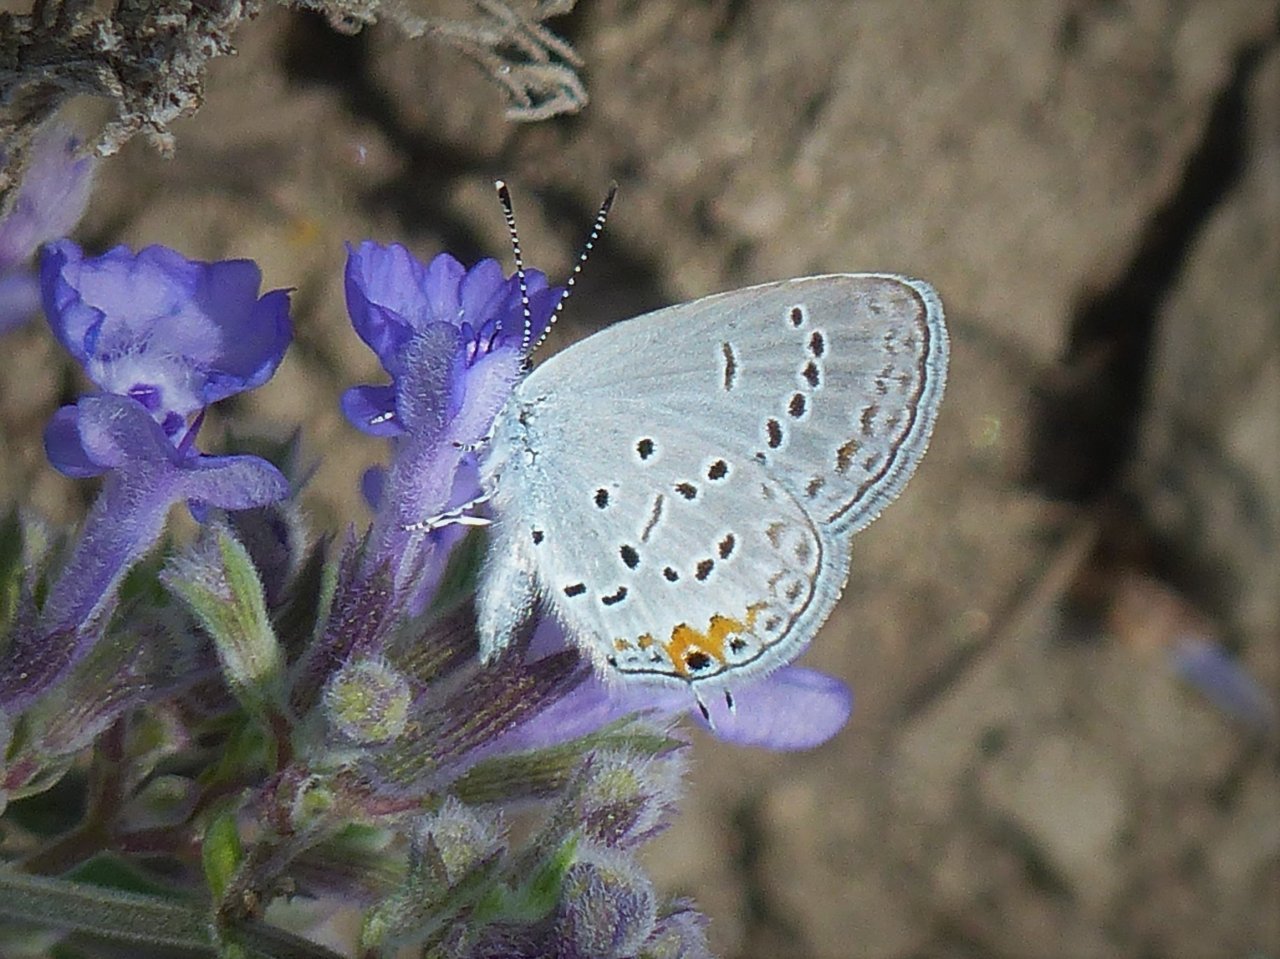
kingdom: Animalia
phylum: Arthropoda
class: Insecta
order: Lepidoptera
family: Lycaenidae
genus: Elkalyce
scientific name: Elkalyce comyntas
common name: Eastern Tailed-Blue
